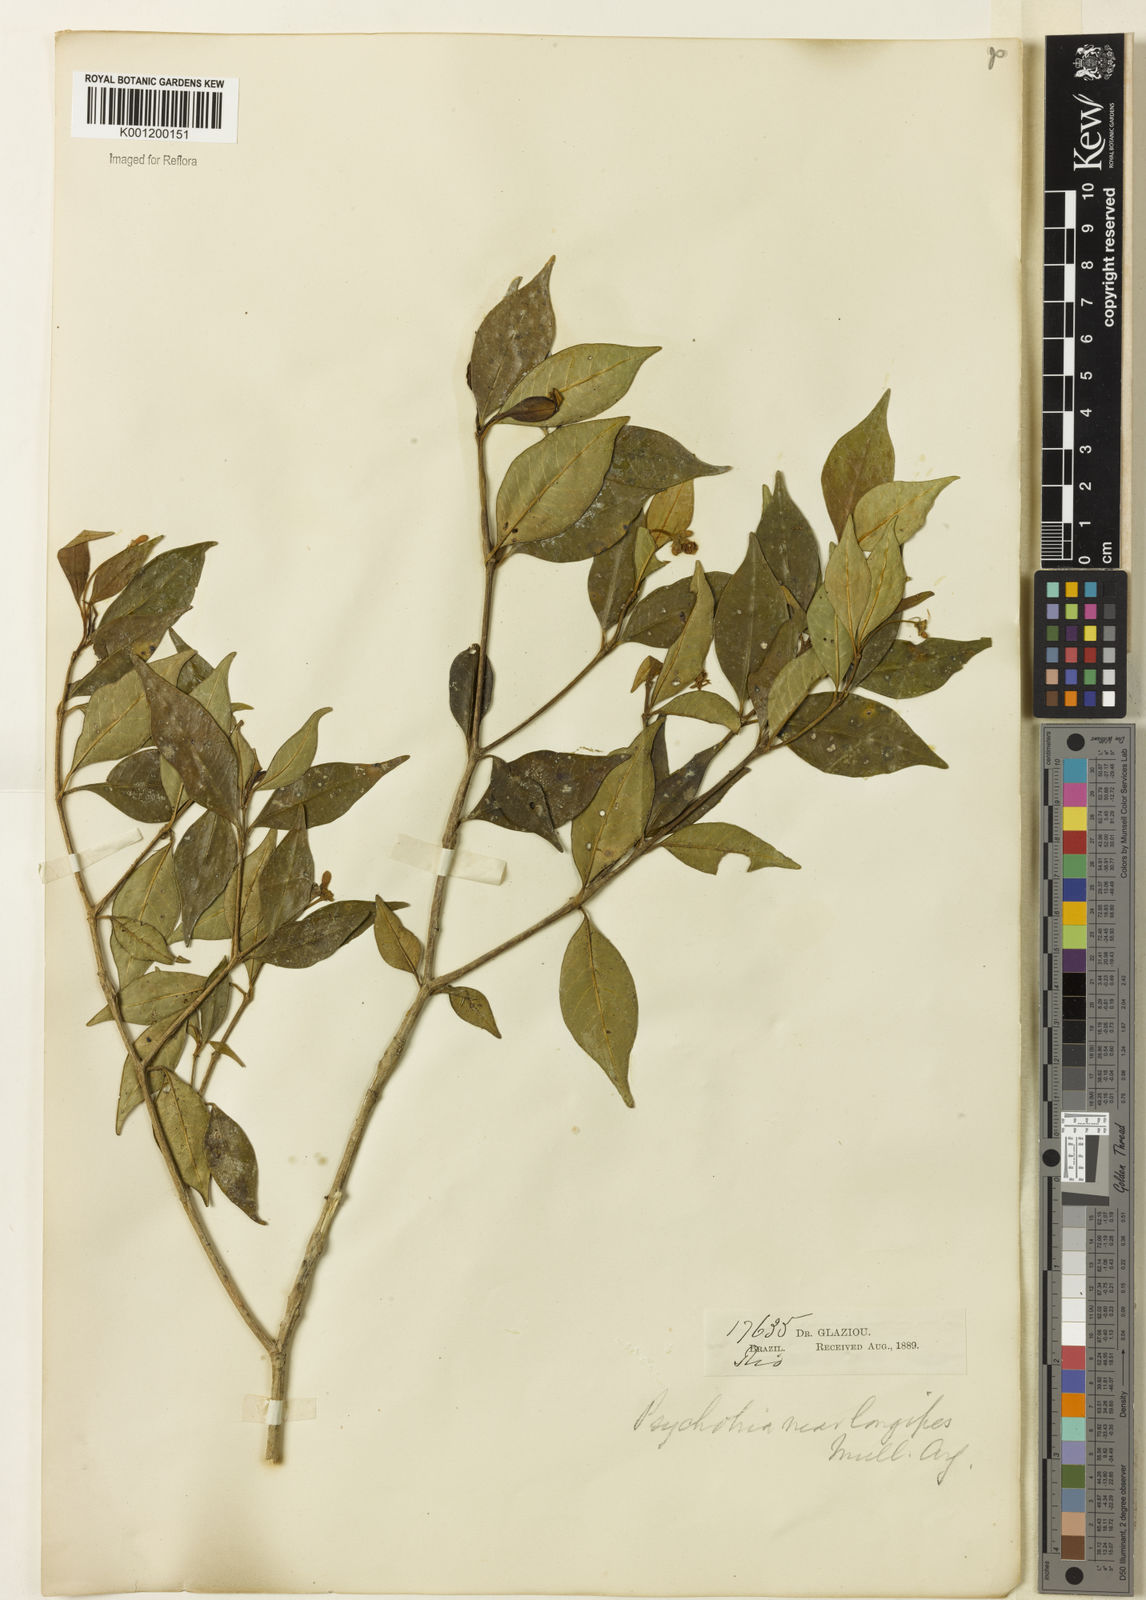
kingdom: Plantae
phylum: Tracheophyta
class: Magnoliopsida
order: Gentianales
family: Rubiaceae
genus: Rudgea
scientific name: Rudgea sessilis
